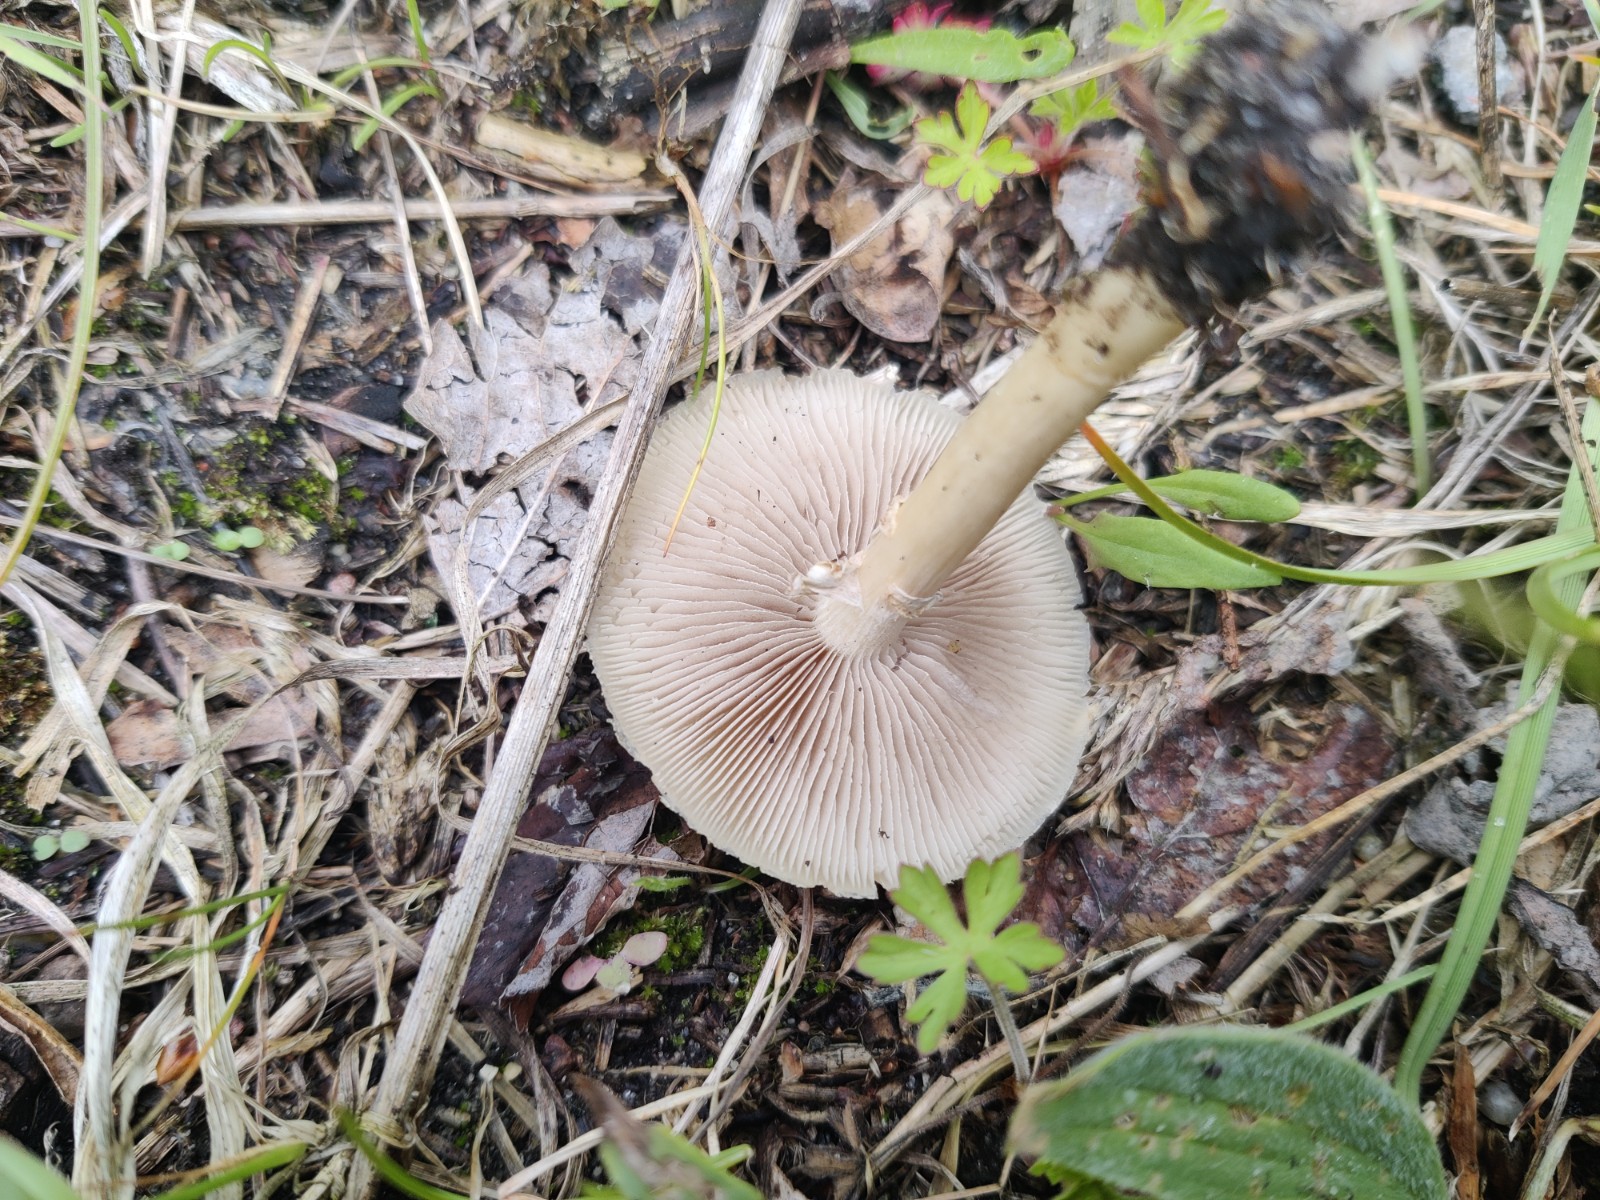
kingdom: Fungi
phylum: Basidiomycota
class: Agaricomycetes
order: Agaricales
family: Strophariaceae
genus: Agrocybe
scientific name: Agrocybe praecox
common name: tidlig agerhat
